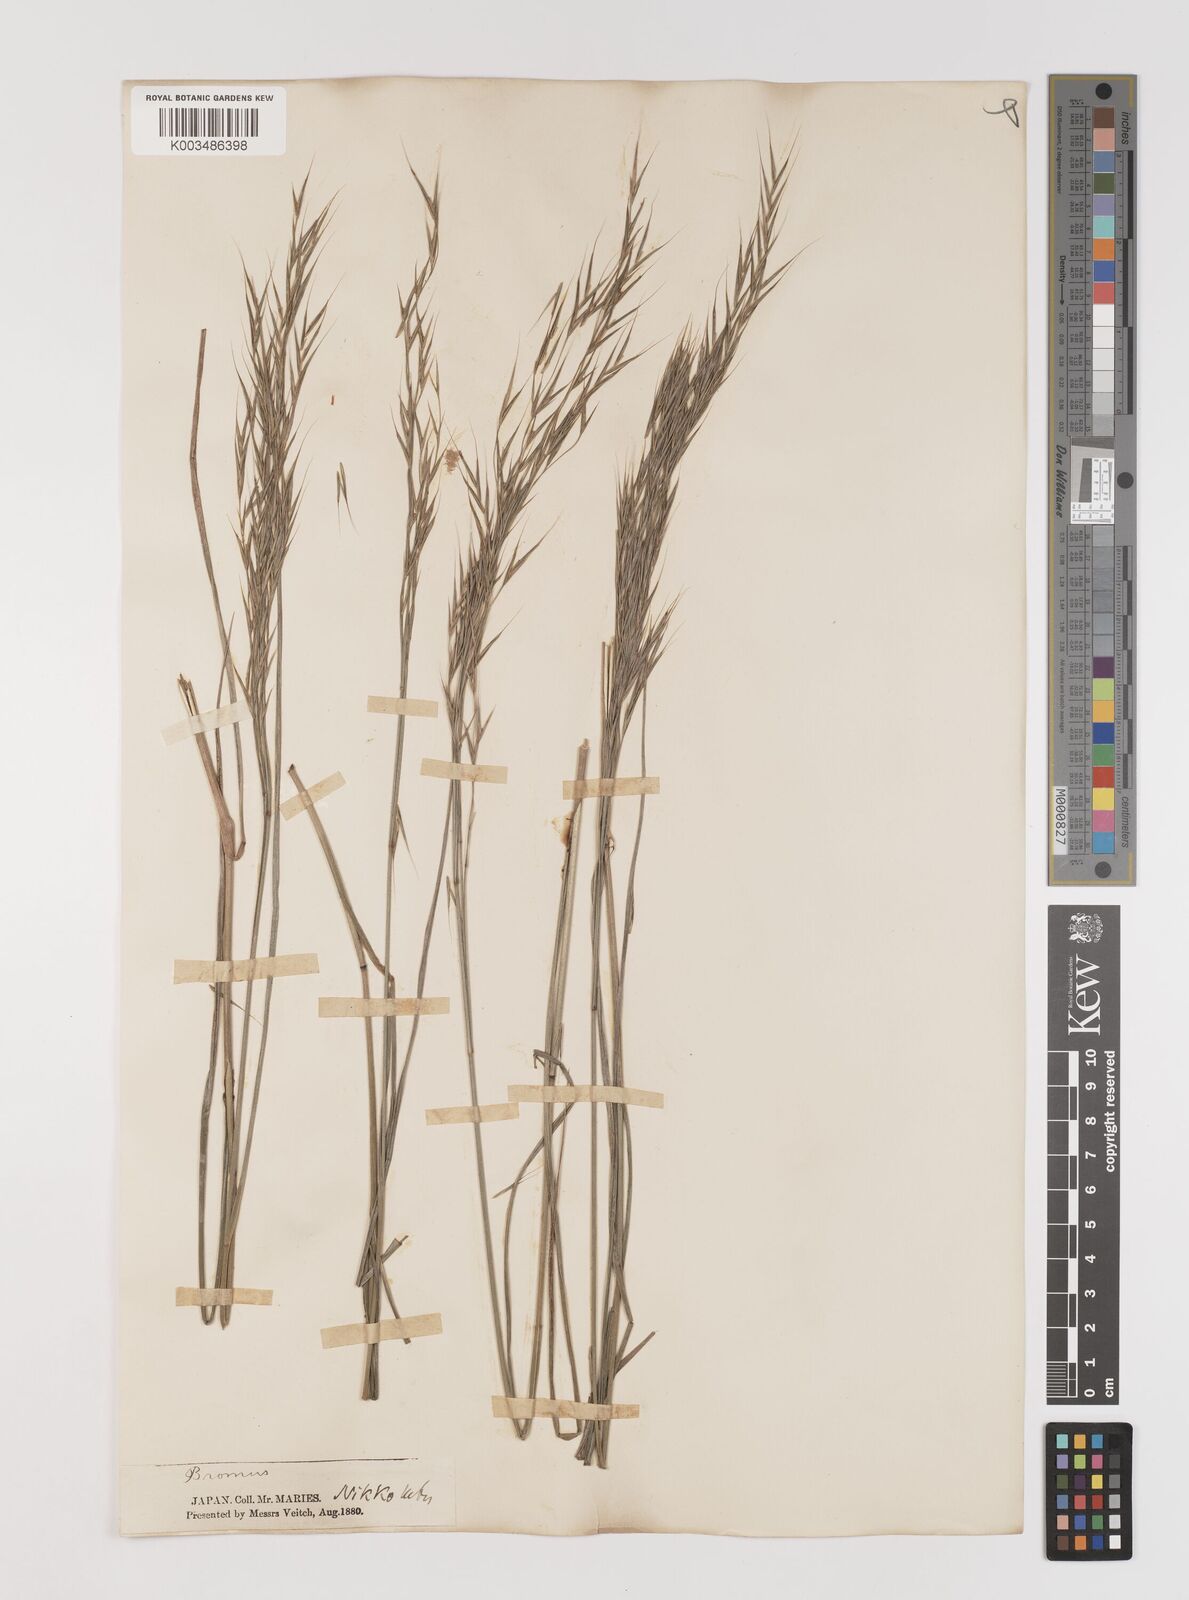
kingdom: Plantae
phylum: Tracheophyta
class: Liliopsida
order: Poales
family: Poaceae
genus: Bromus
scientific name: Bromus
